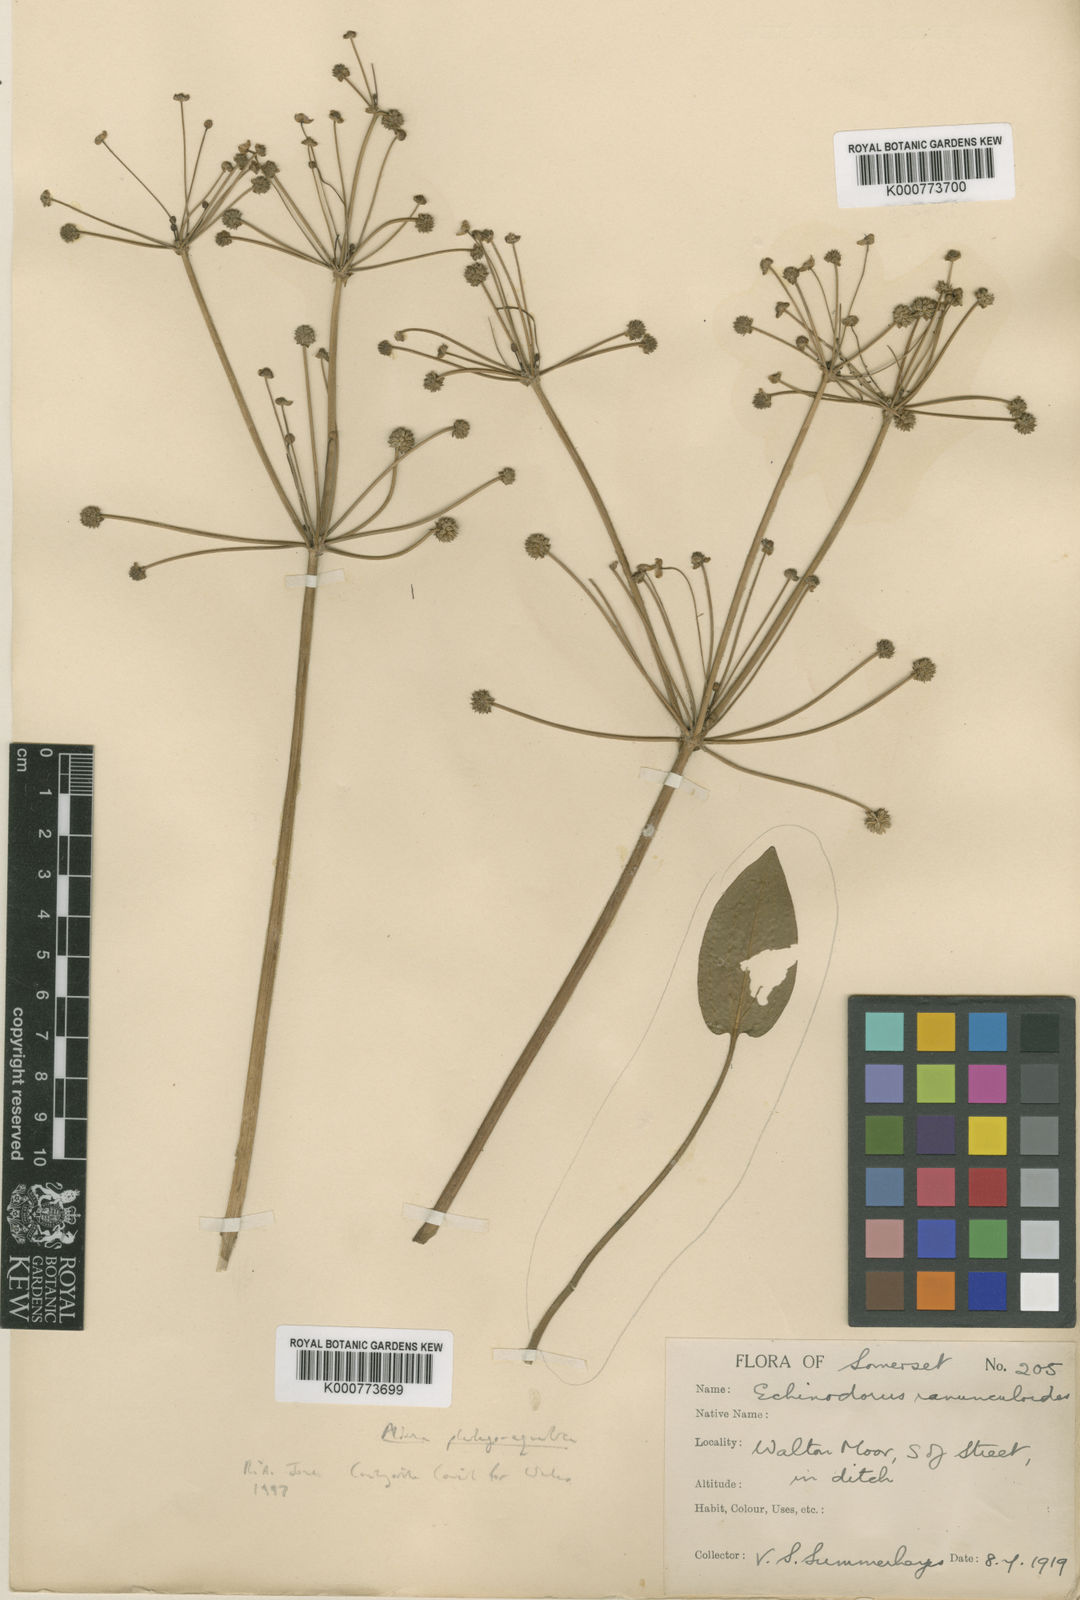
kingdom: Plantae
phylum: Tracheophyta
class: Liliopsida
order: Alismatales
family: Alismataceae
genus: Baldellia
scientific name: Baldellia ranunculoides
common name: Lesser water-plantain
